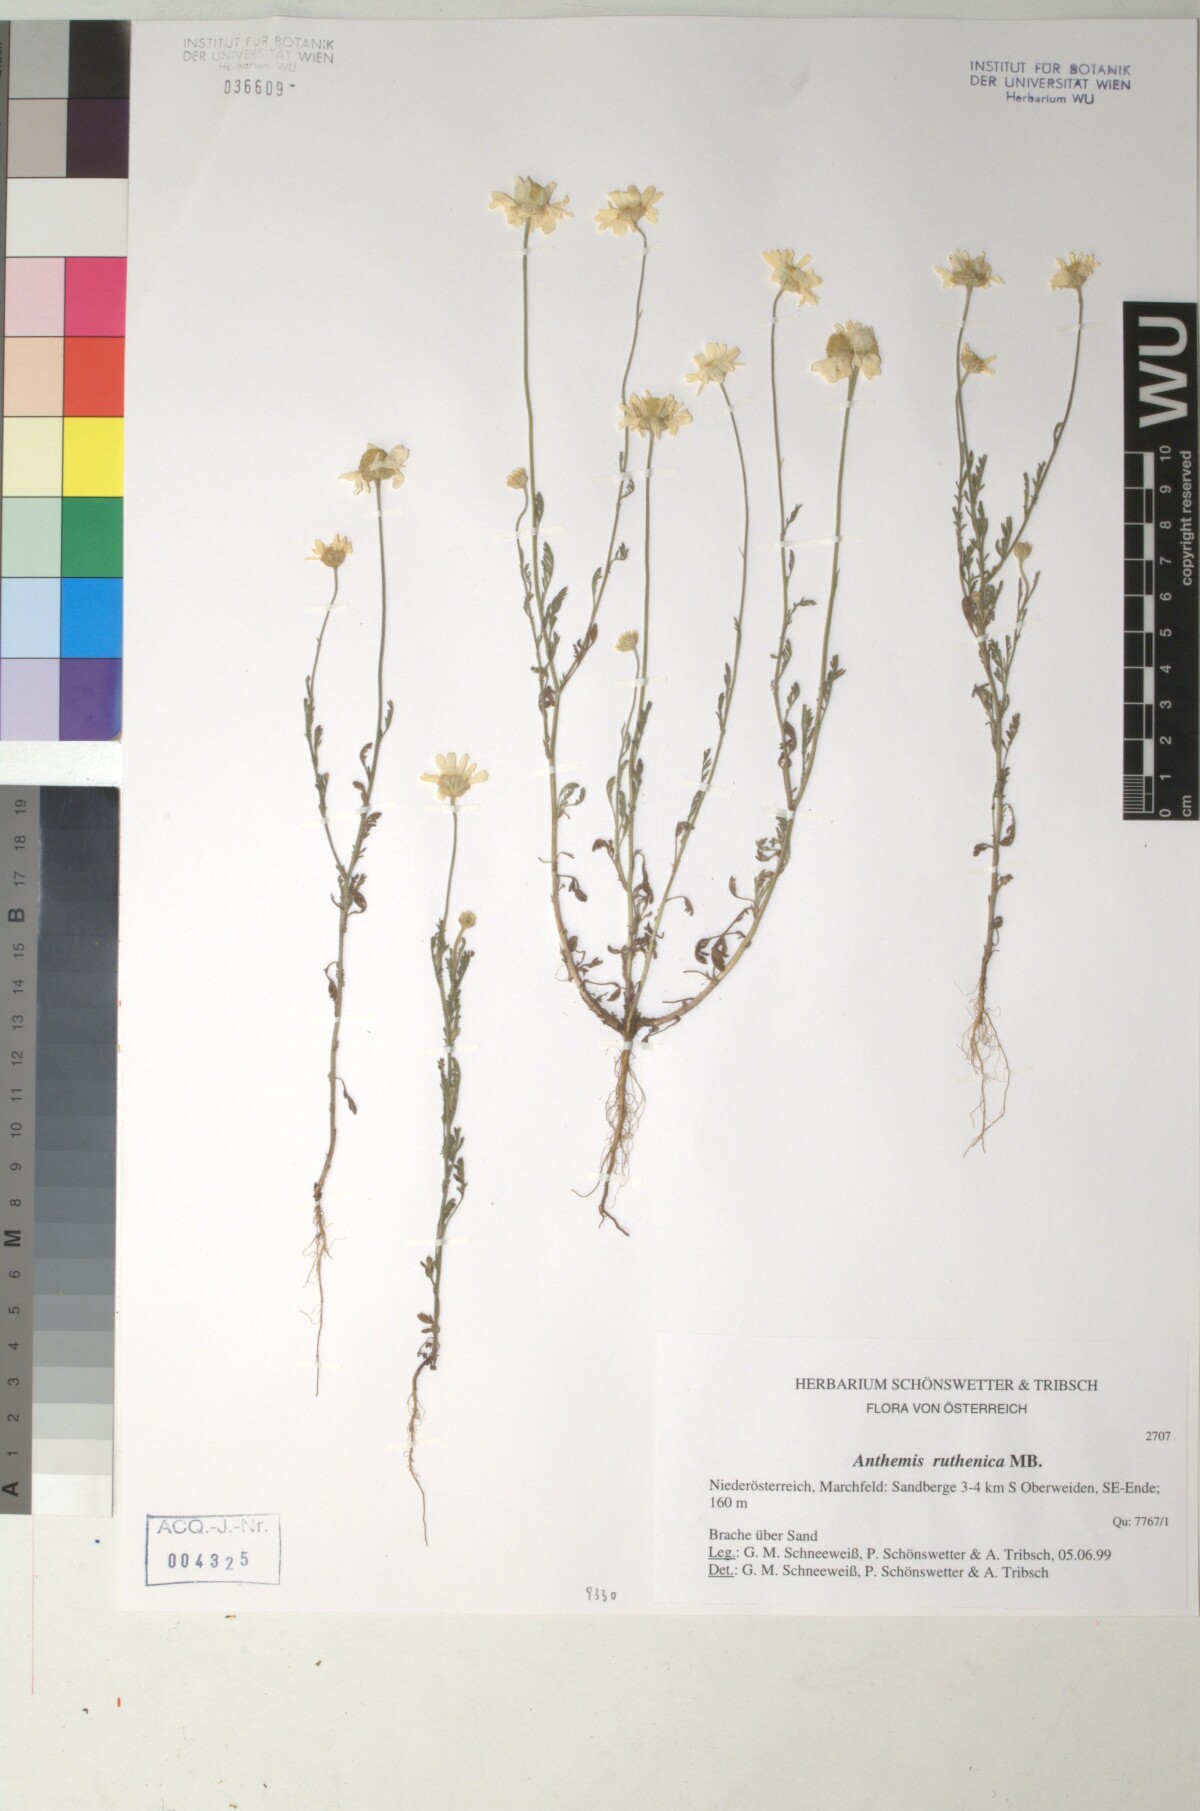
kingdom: Plantae
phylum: Tracheophyta
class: Magnoliopsida
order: Asterales
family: Asteraceae
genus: Anthemis
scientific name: Anthemis ruthenica
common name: Eastern chamomile
